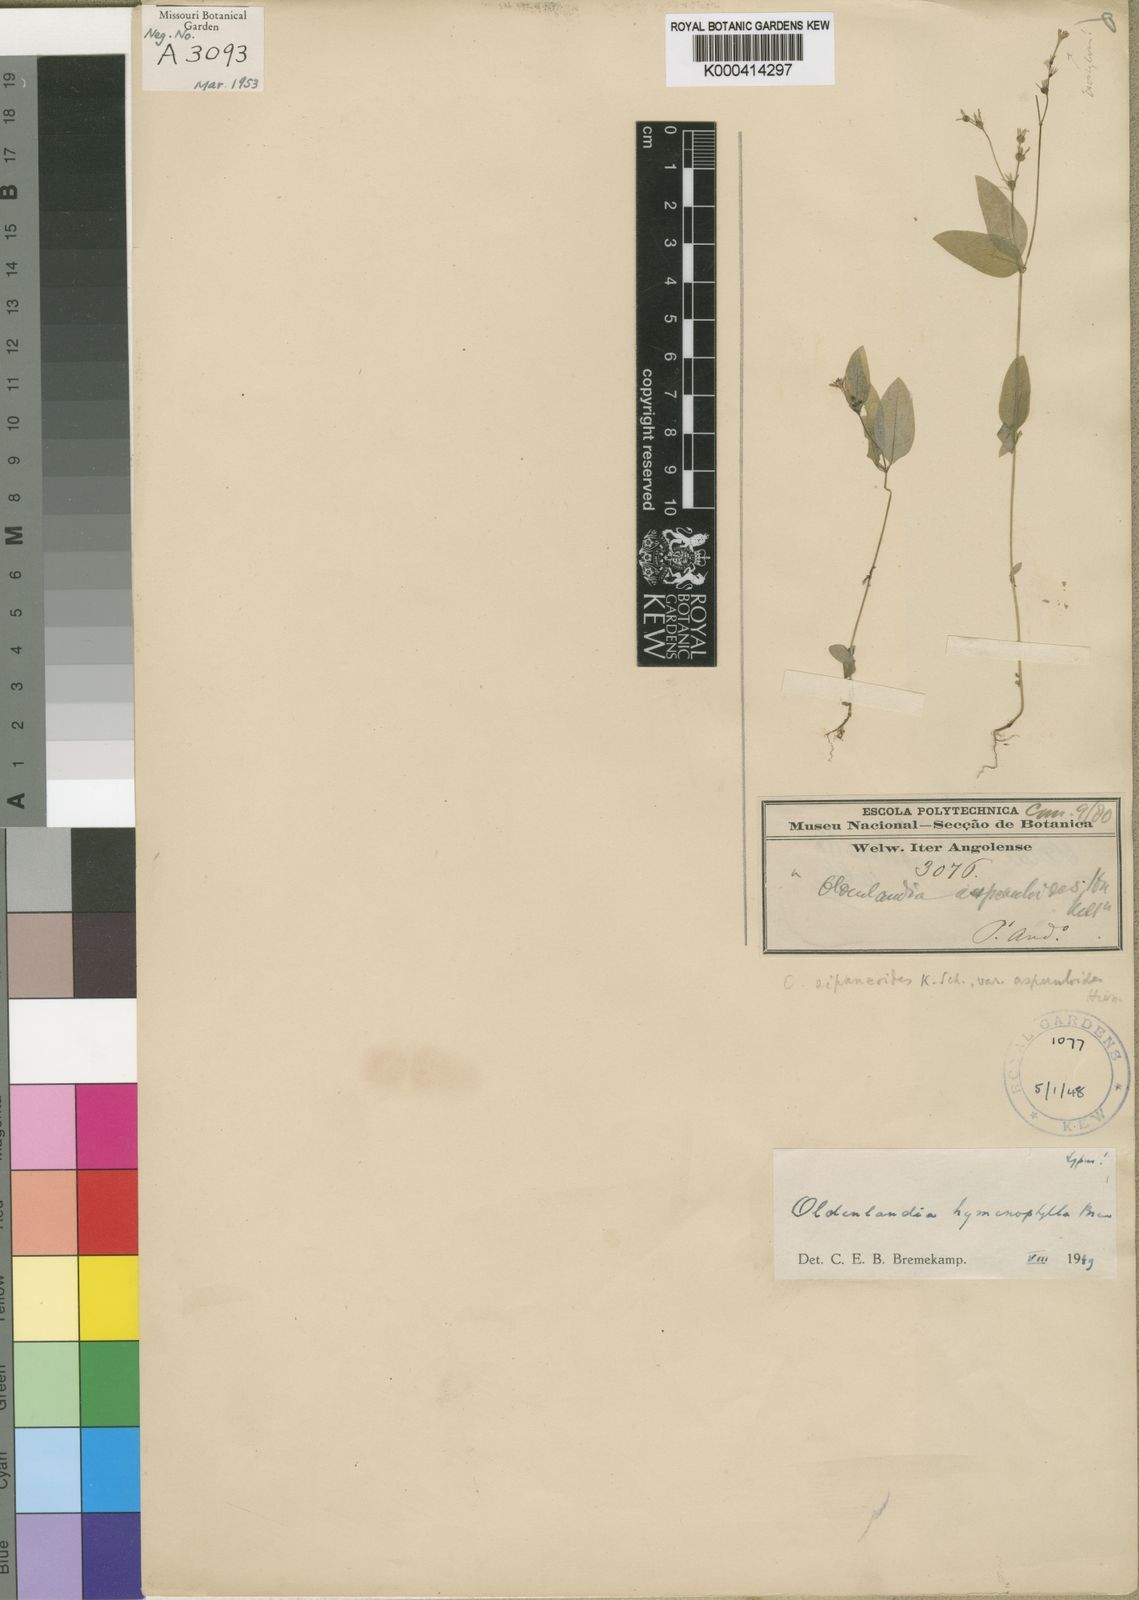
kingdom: Plantae
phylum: Tracheophyta
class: Magnoliopsida
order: Gentianales
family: Rubiaceae
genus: Oldenlandia
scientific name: Oldenlandia hymenophylla
